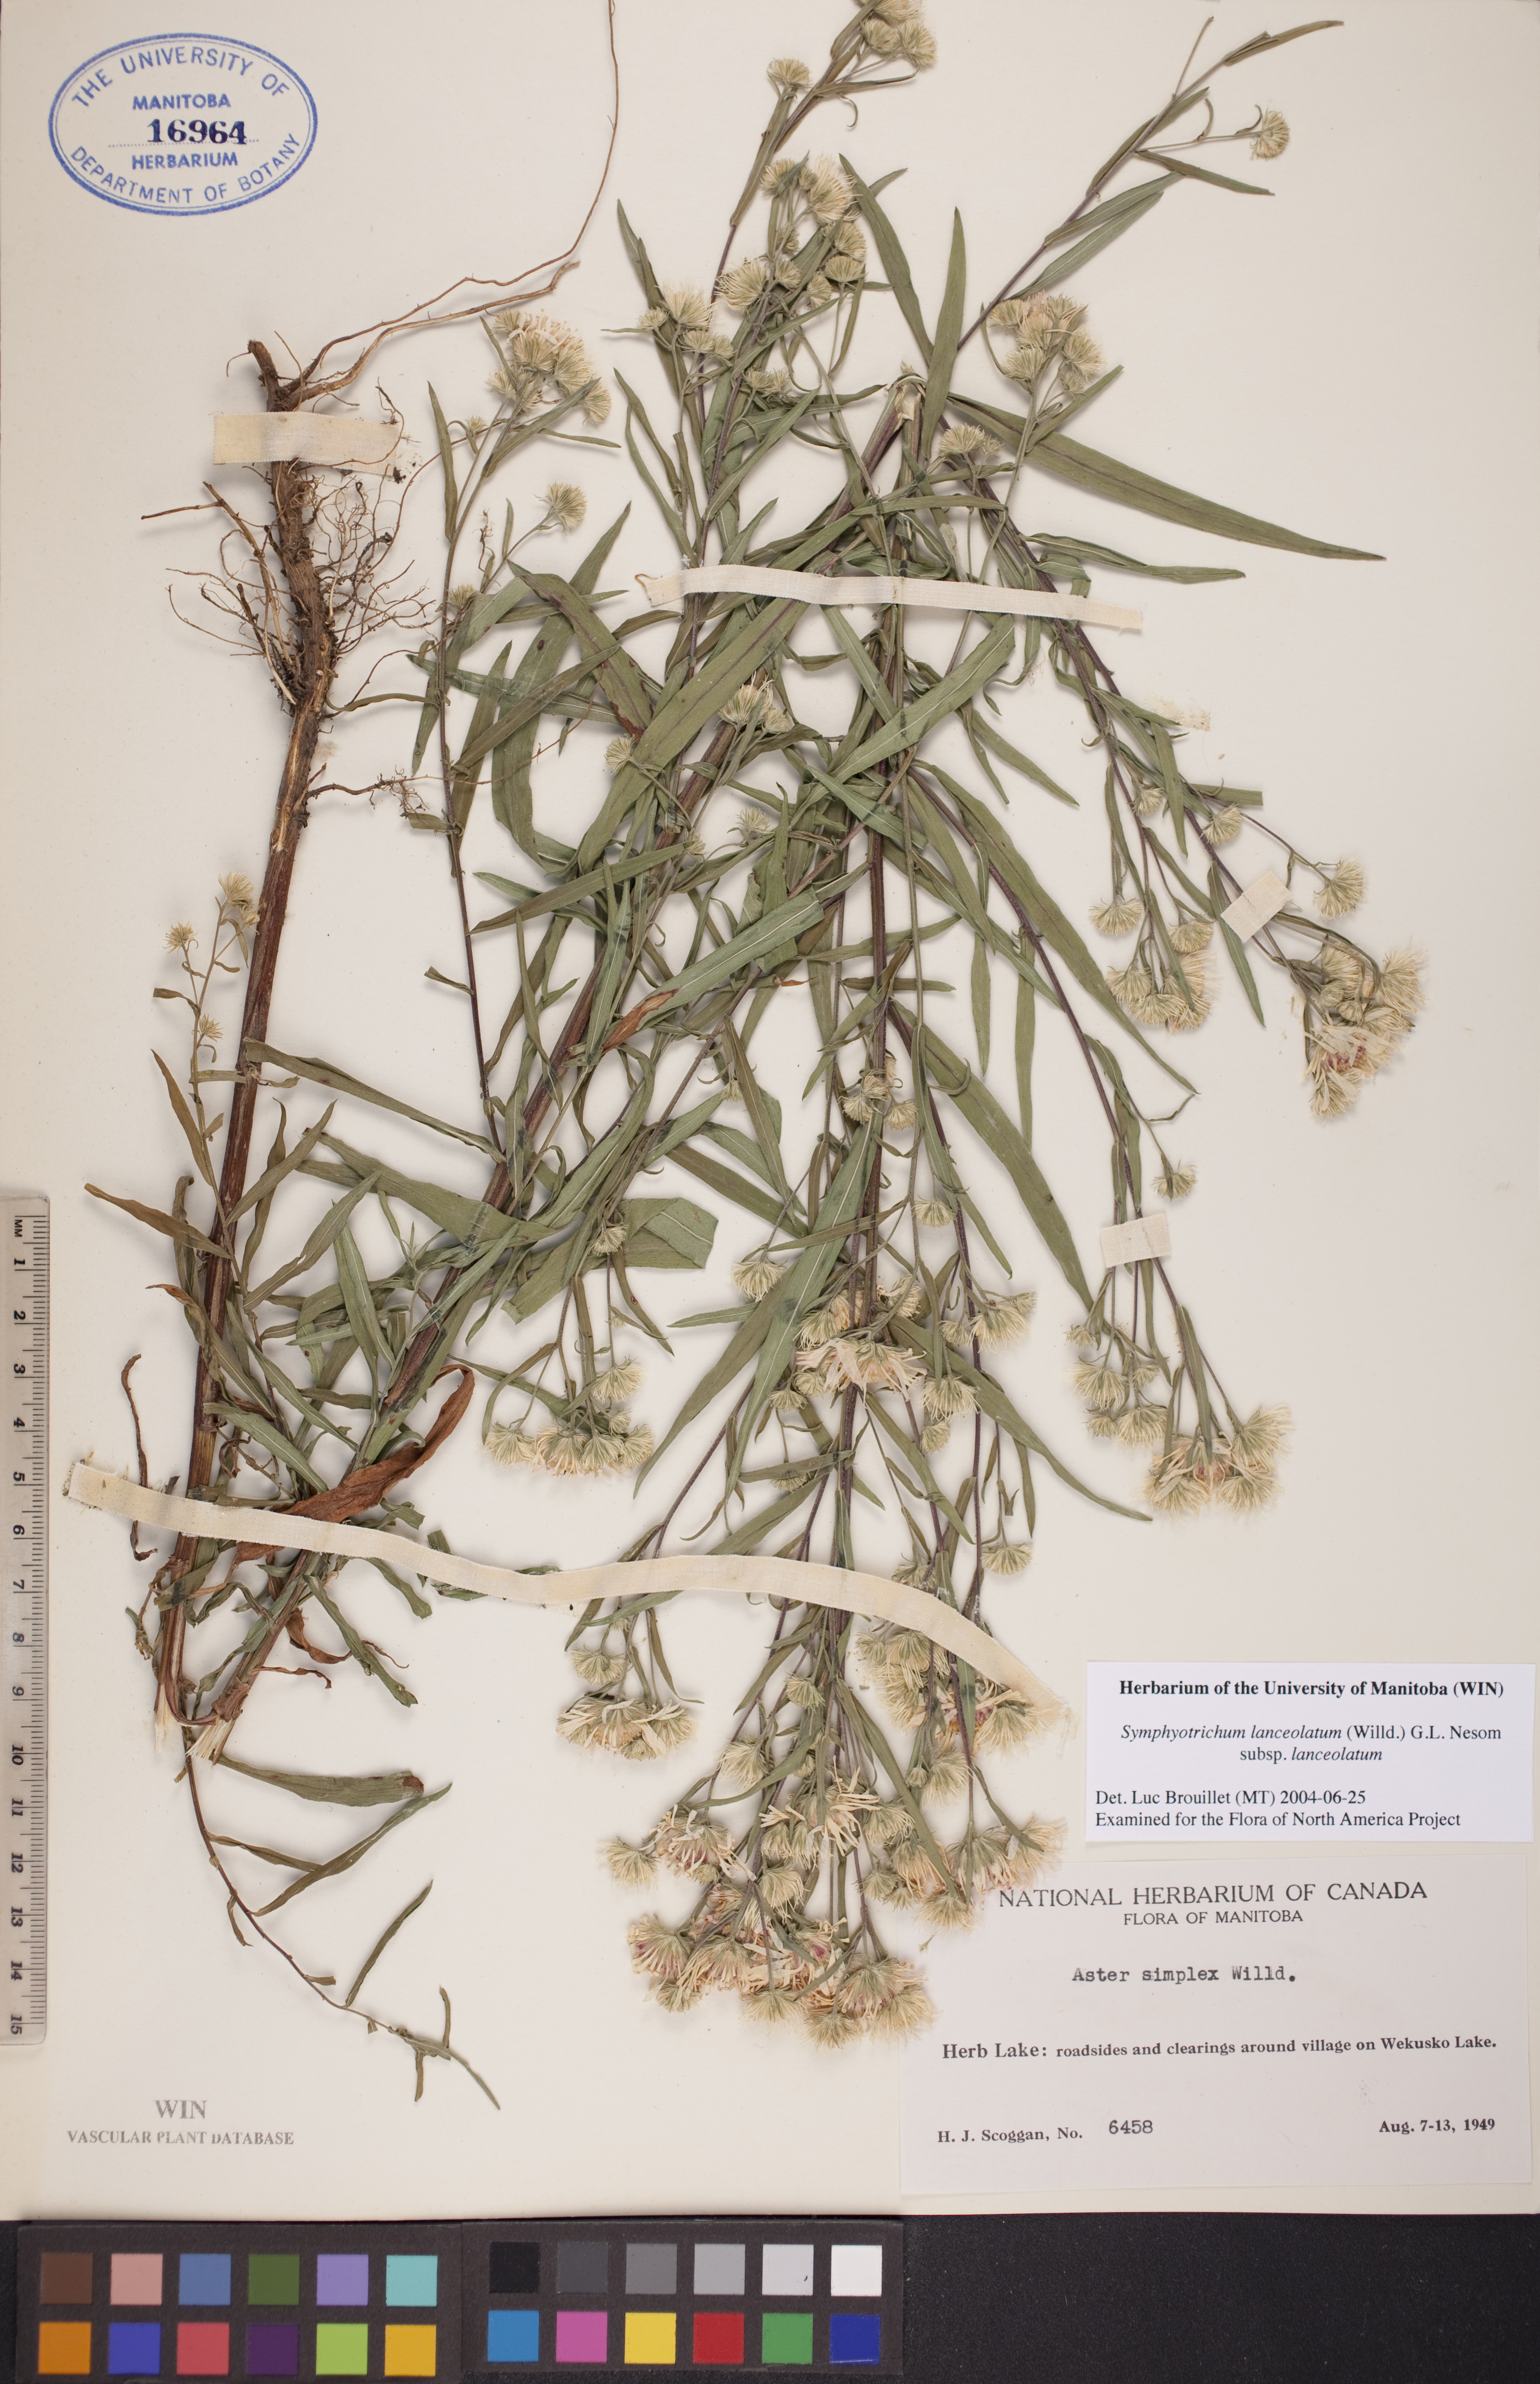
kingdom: Plantae
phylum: Tracheophyta
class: Magnoliopsida
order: Asterales
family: Asteraceae
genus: Symphyotrichum
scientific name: Symphyotrichum lanceolatum
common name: Panicled aster
